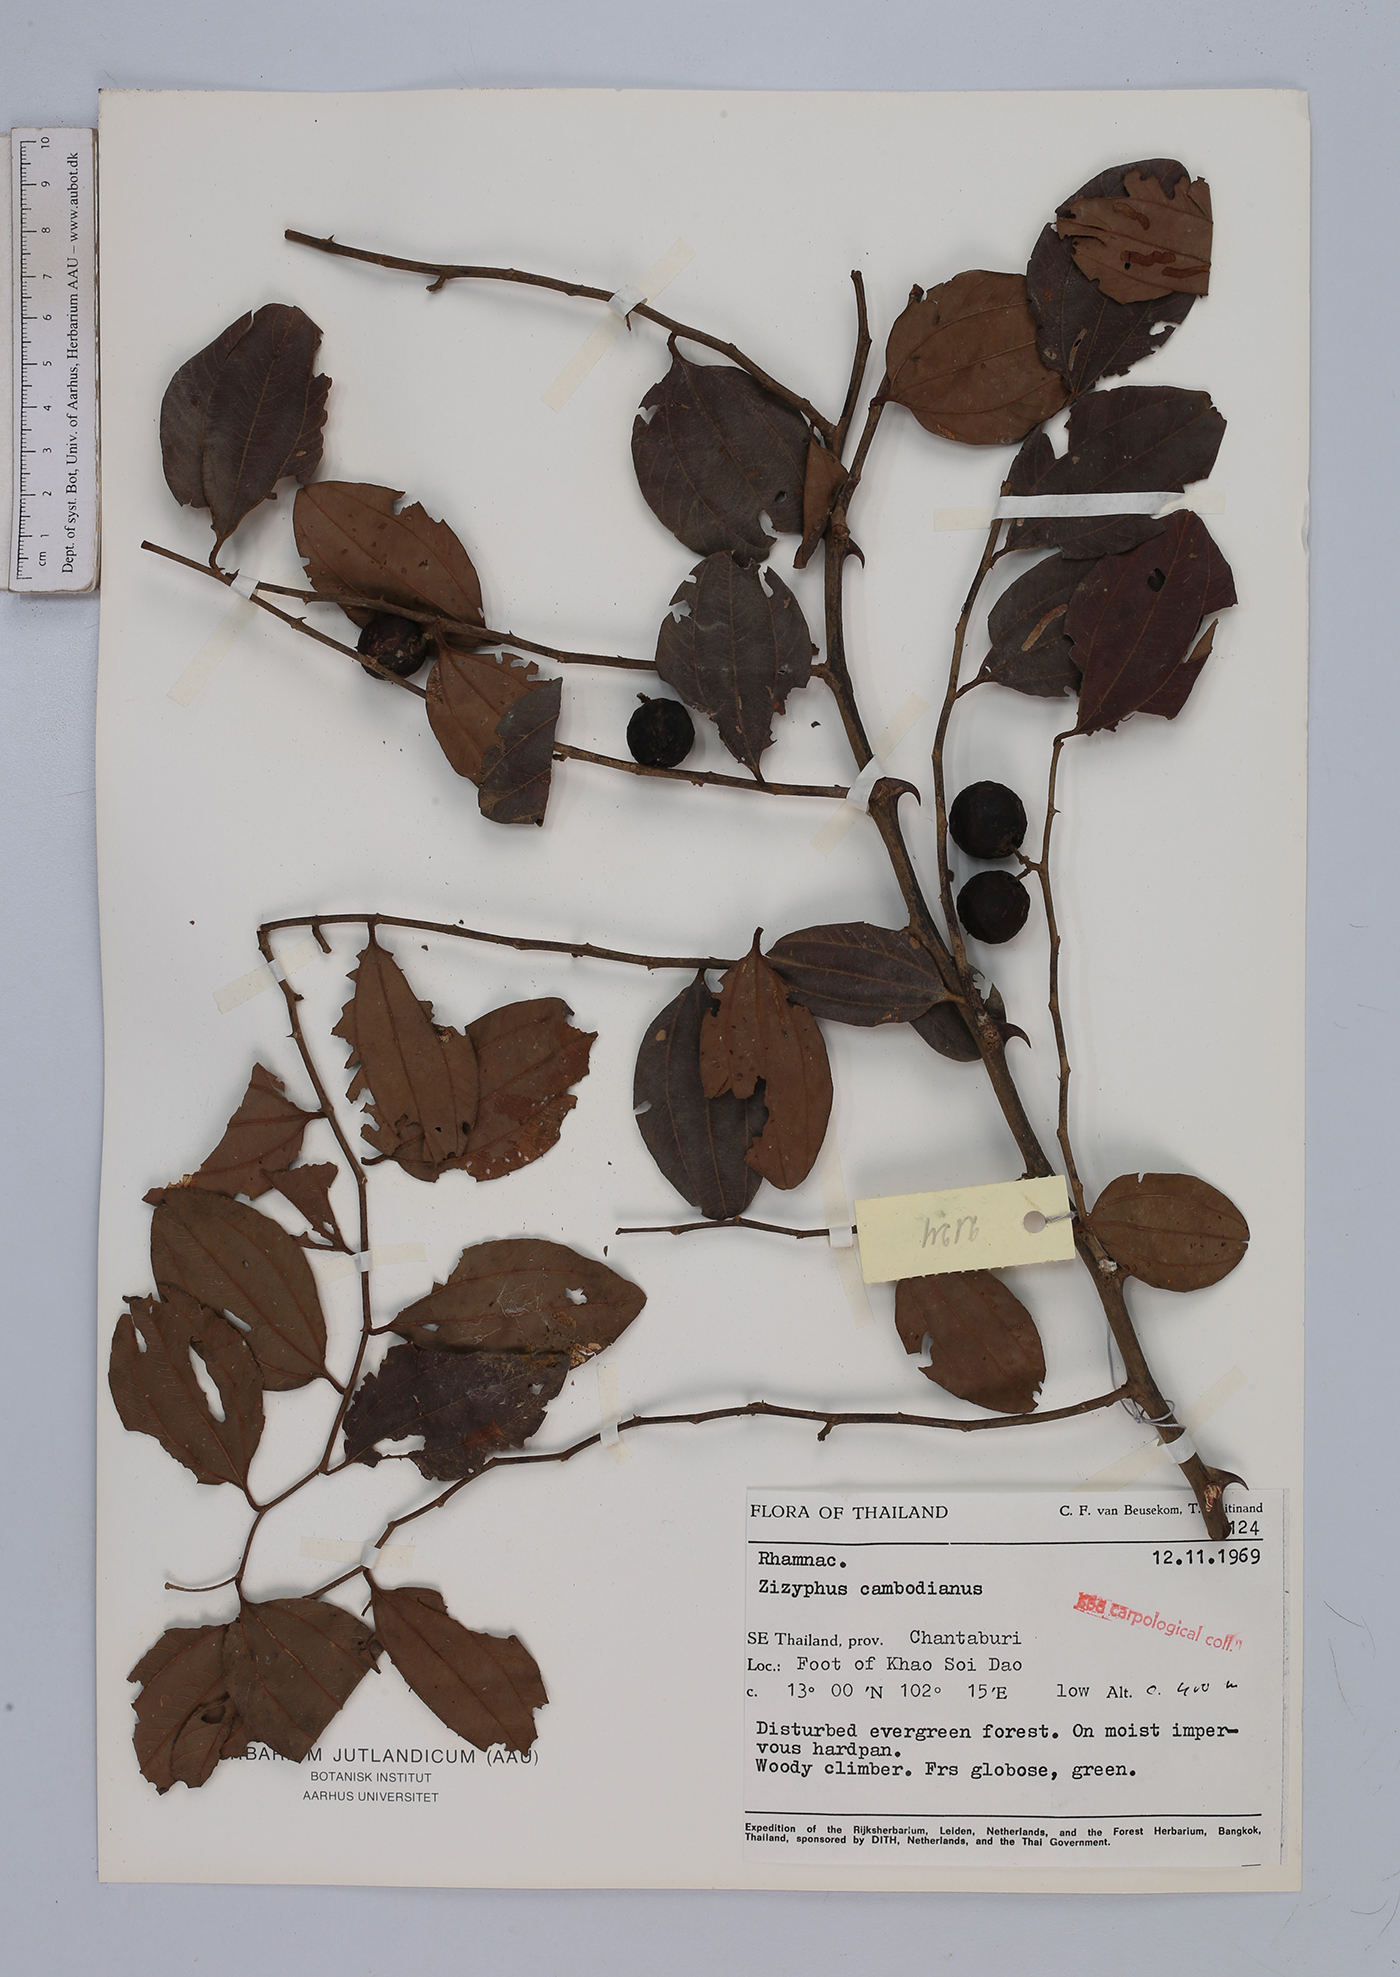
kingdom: Plantae
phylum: Tracheophyta
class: Magnoliopsida
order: Rosales
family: Rhamnaceae
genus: Ziziphus
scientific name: Ziziphus cambodiana
